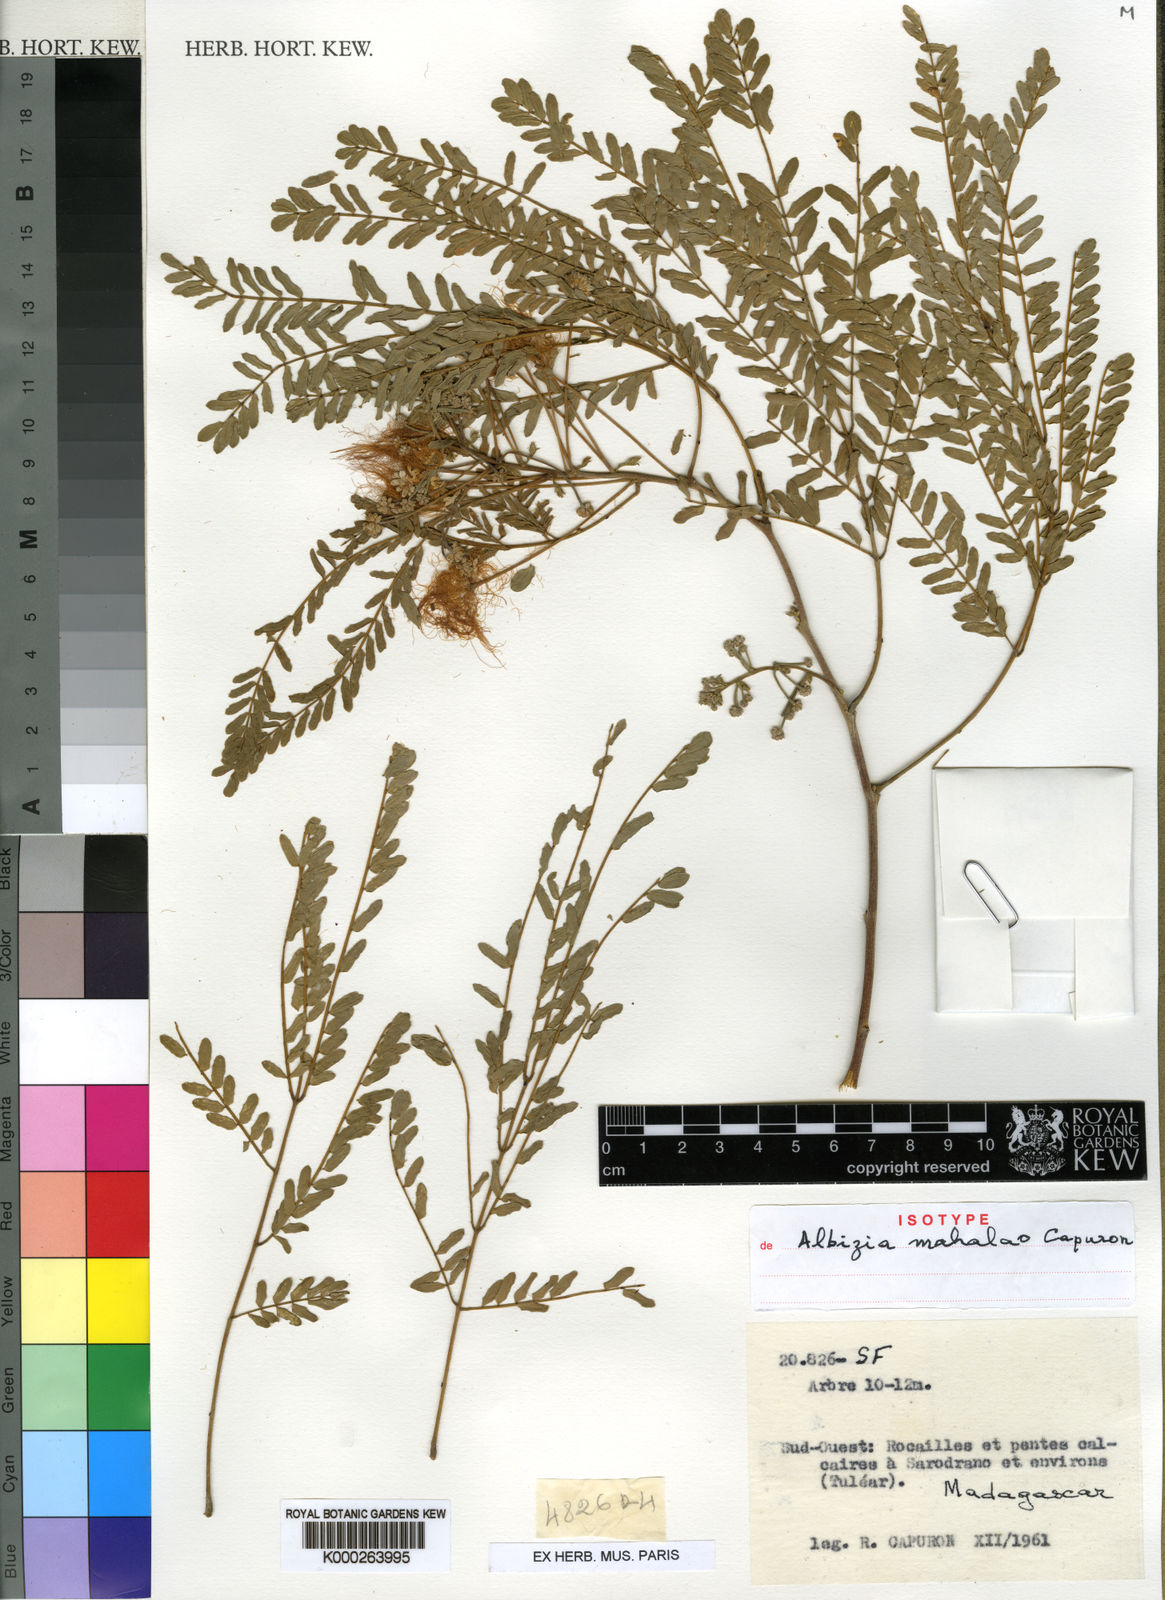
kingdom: Plantae
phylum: Tracheophyta
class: Magnoliopsida
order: Fabales
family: Fabaceae
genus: Albizia
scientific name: Albizia
